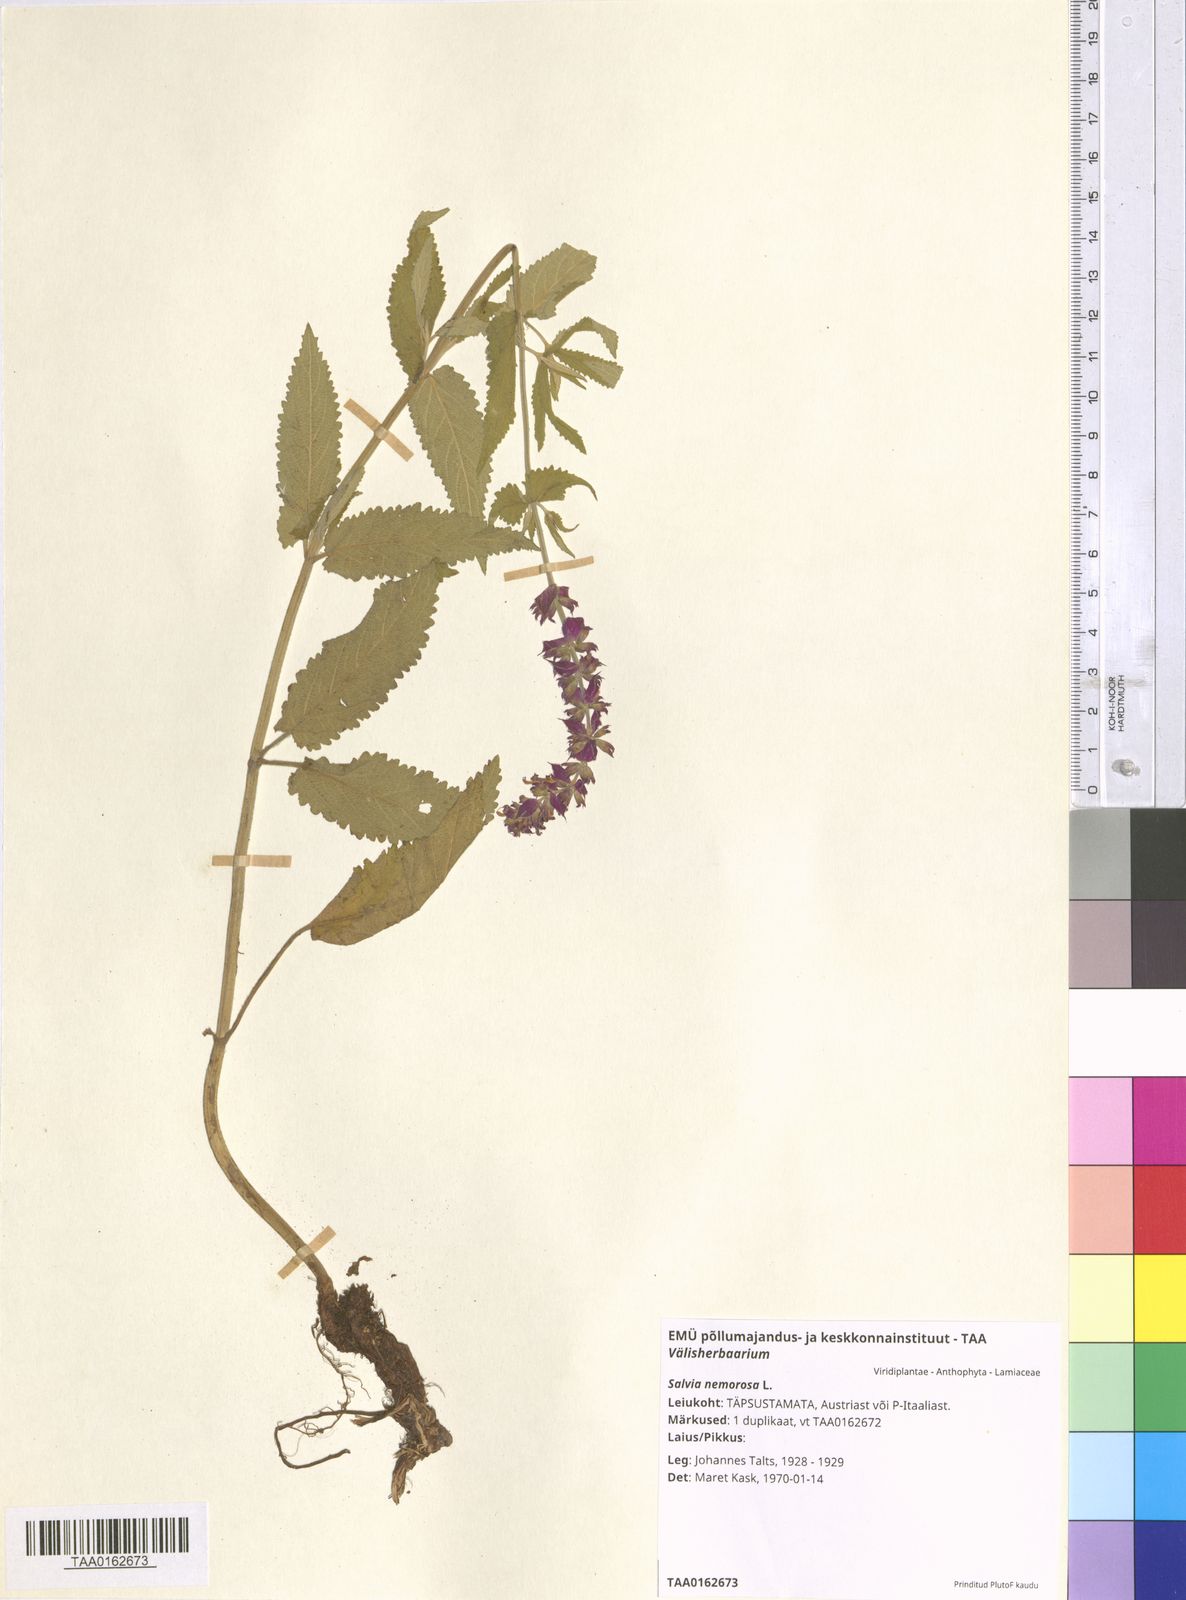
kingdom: Plantae
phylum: Tracheophyta
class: Magnoliopsida
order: Lamiales
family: Lamiaceae
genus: Salvia
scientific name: Salvia nemorosa
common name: Balkan clary
